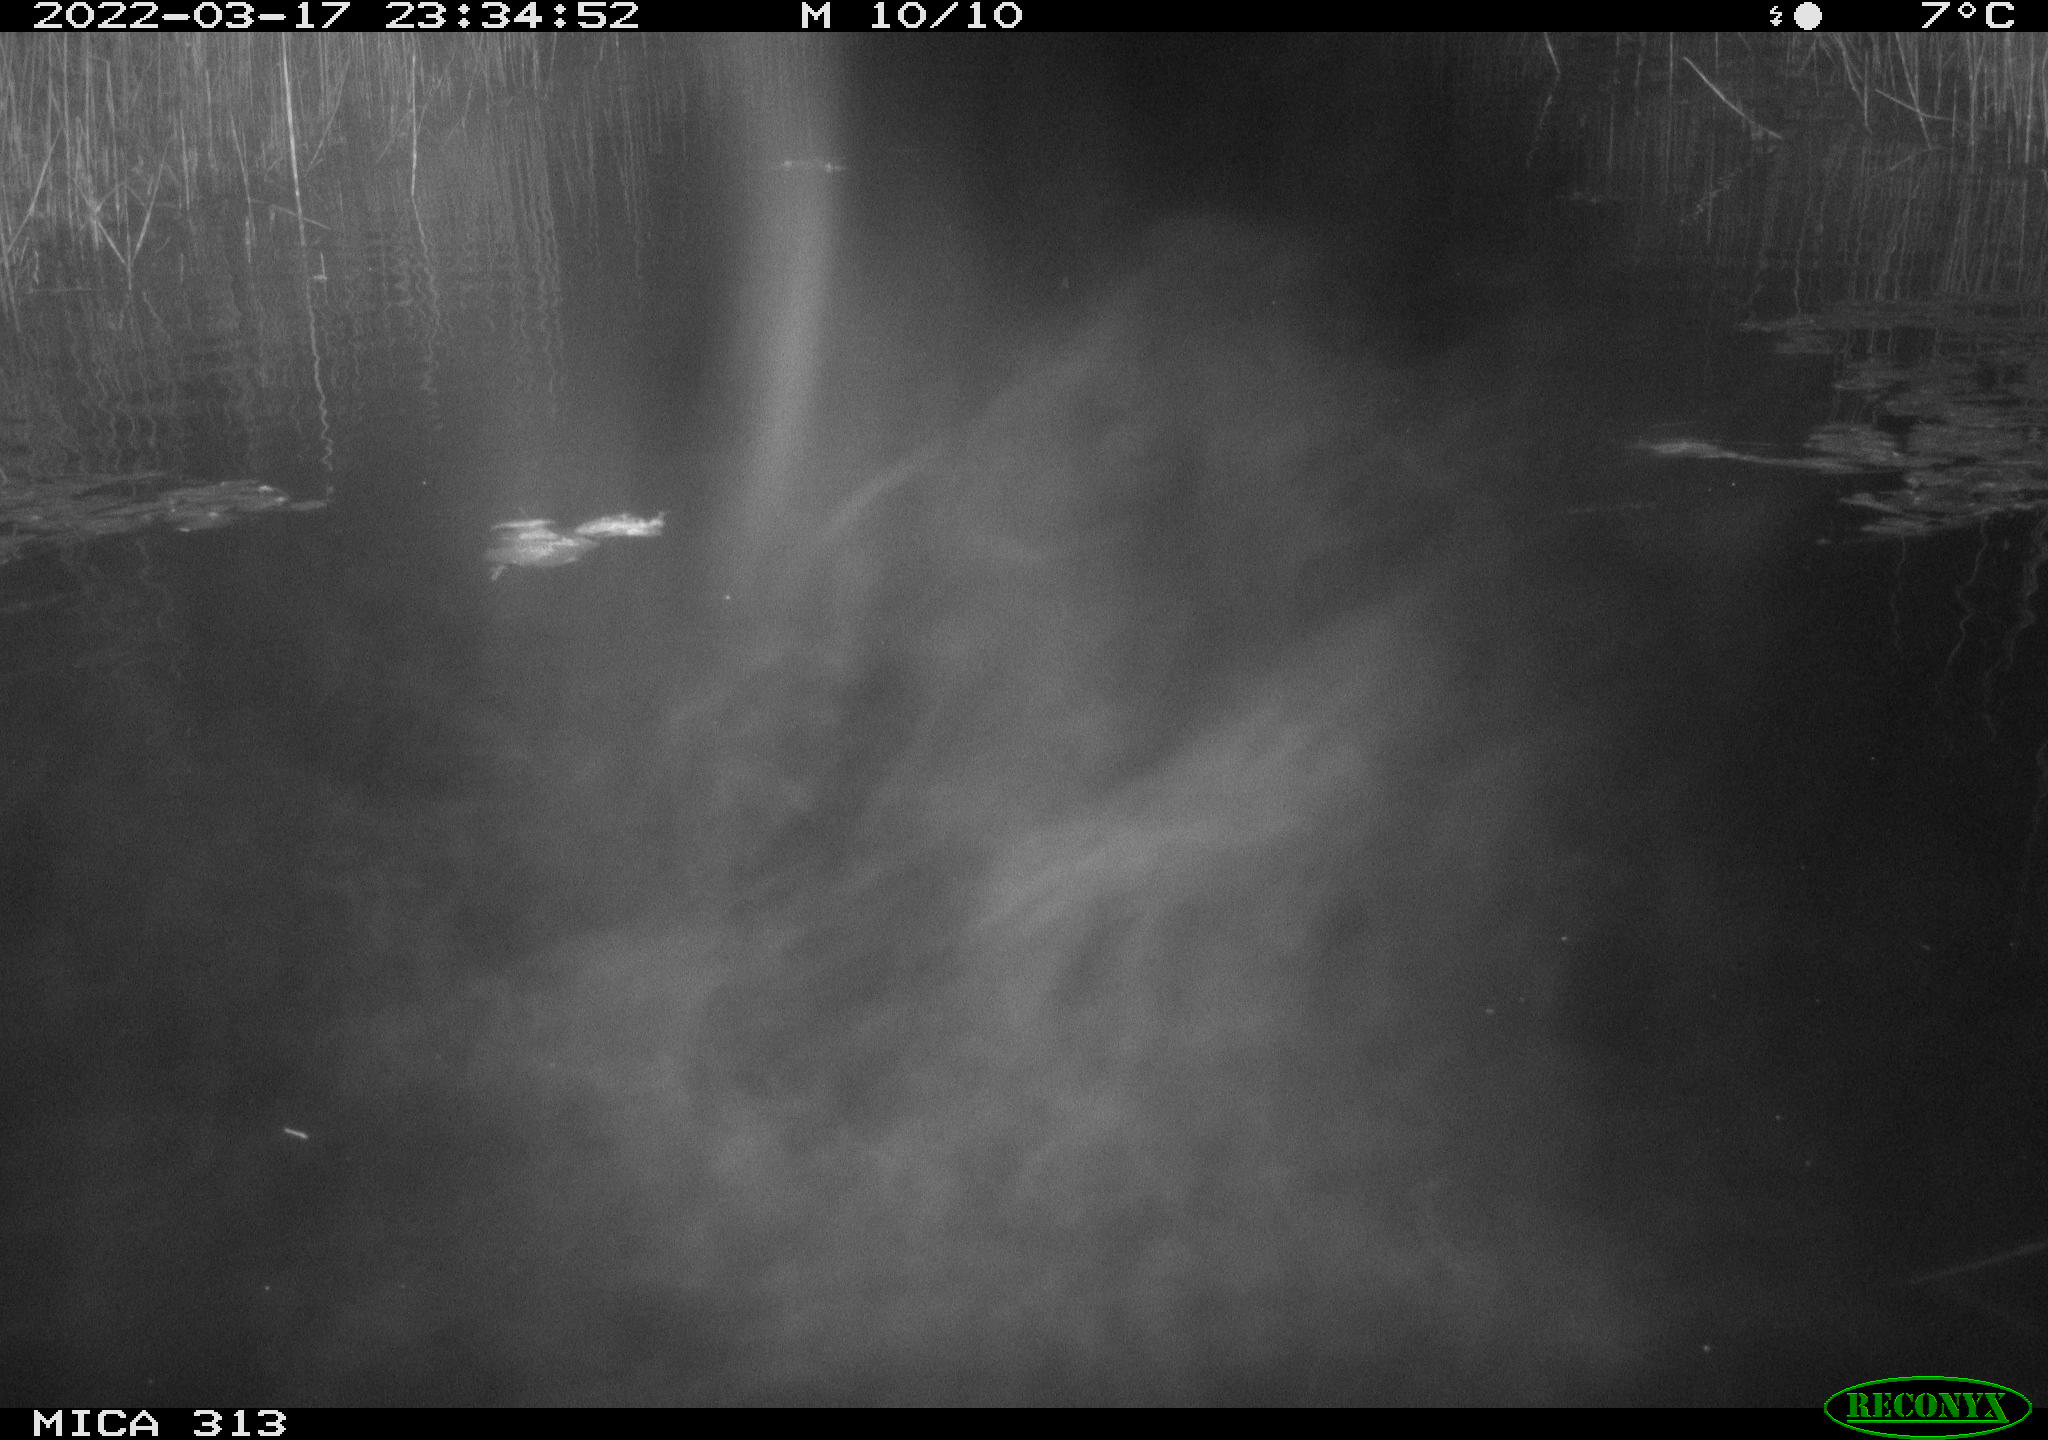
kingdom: Animalia
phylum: Chordata
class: Mammalia
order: Rodentia
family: Cricetidae
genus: Ondatra
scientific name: Ondatra zibethicus
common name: Muskrat
